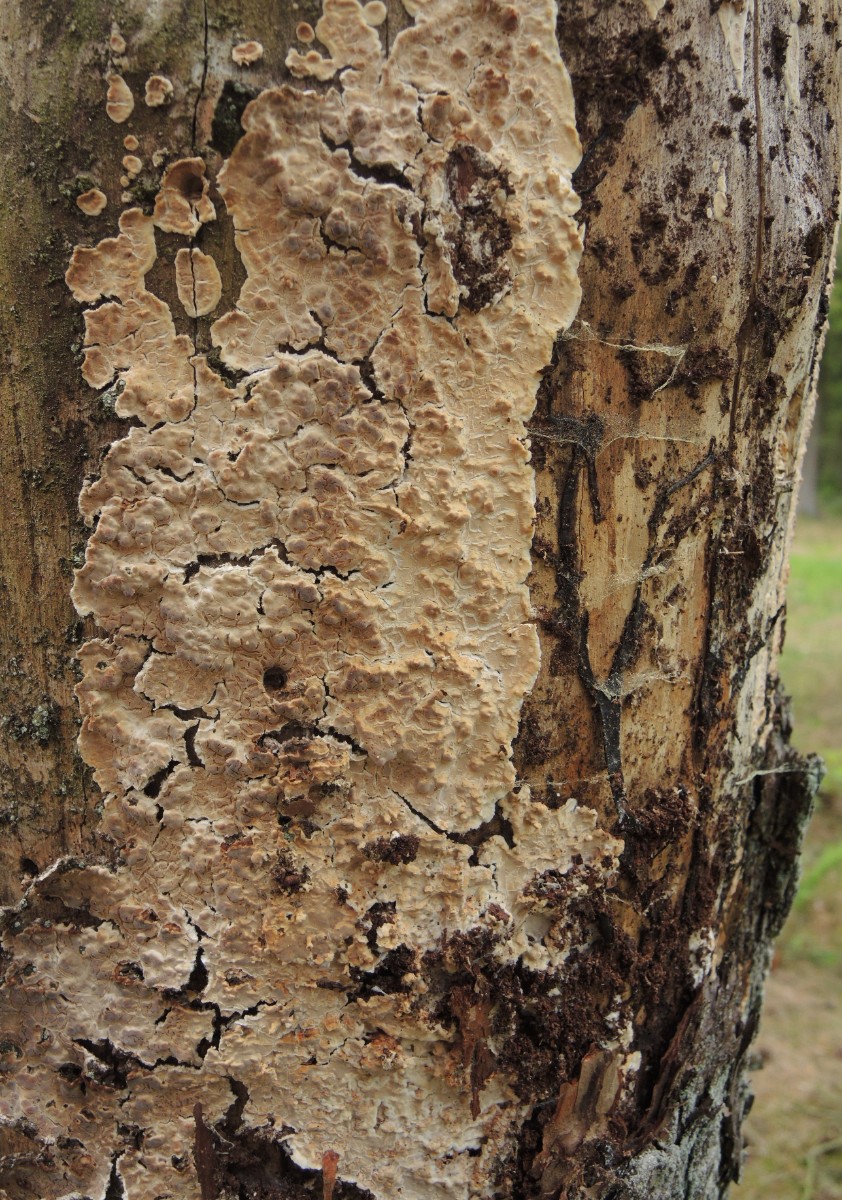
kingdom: Fungi
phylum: Basidiomycota
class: Agaricomycetes
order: Polyporales
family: Dacryobolaceae
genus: Dacryobolus
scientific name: Dacryobolus karstenii
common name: glat vulkanskorpe
